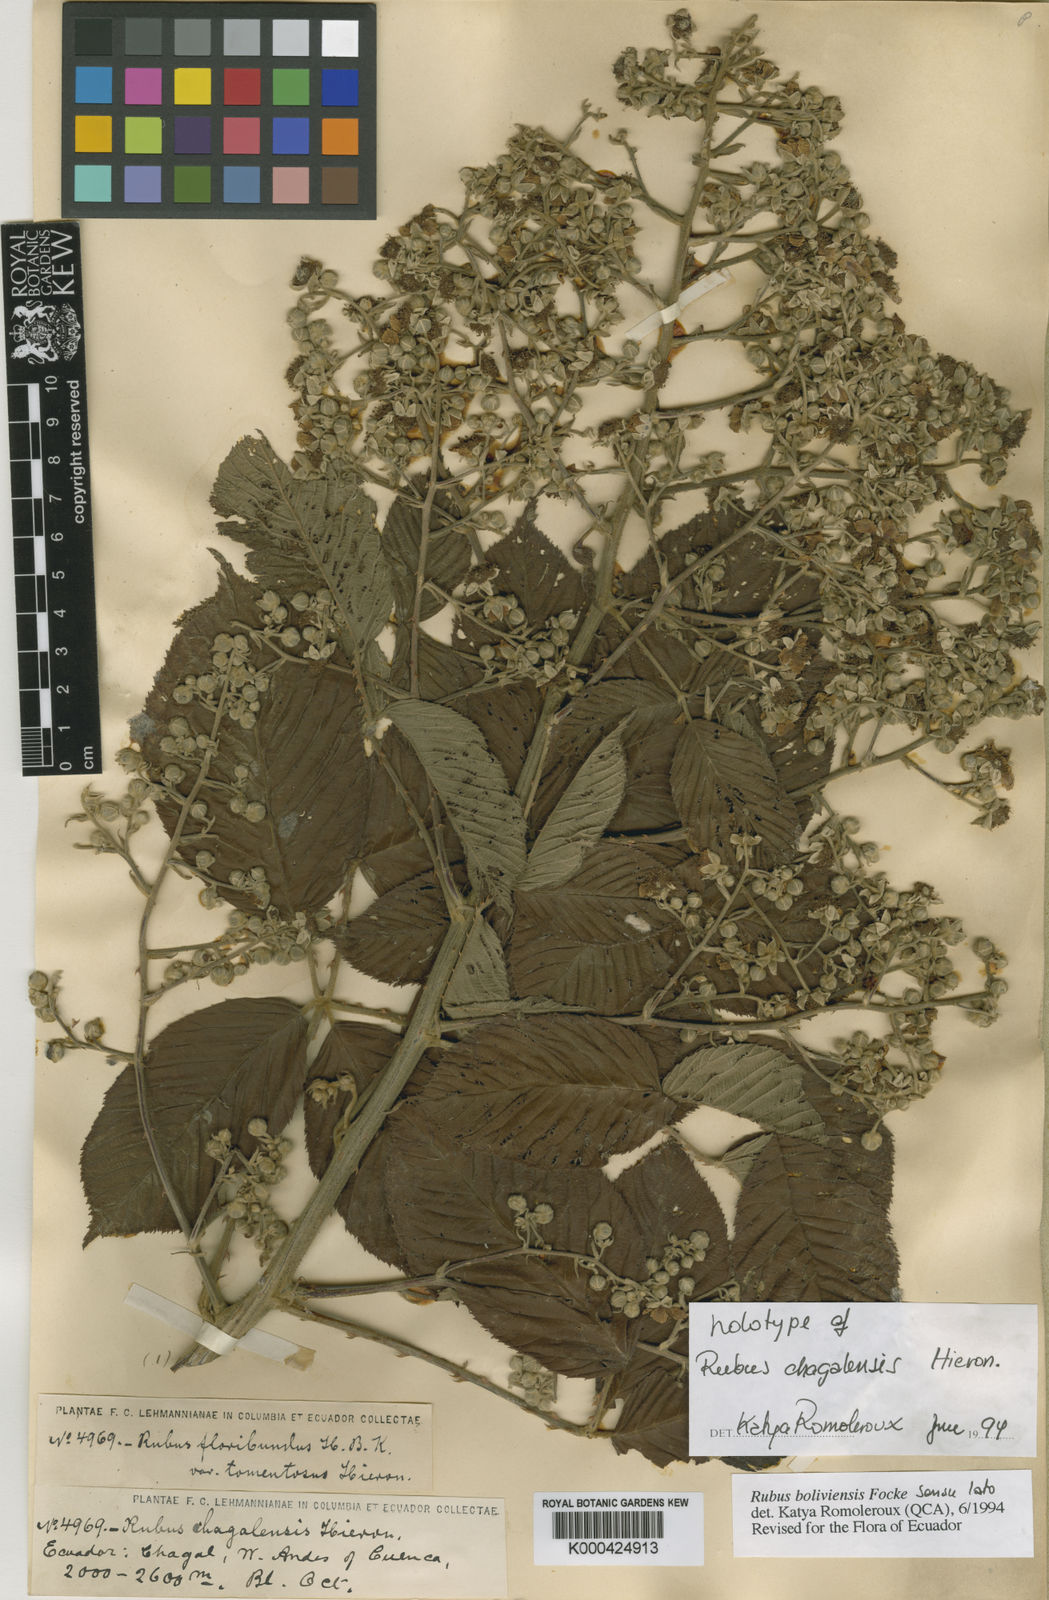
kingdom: Plantae
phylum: Tracheophyta
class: Magnoliopsida
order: Rosales
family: Rosaceae
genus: Rubus
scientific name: Rubus boliviensis
